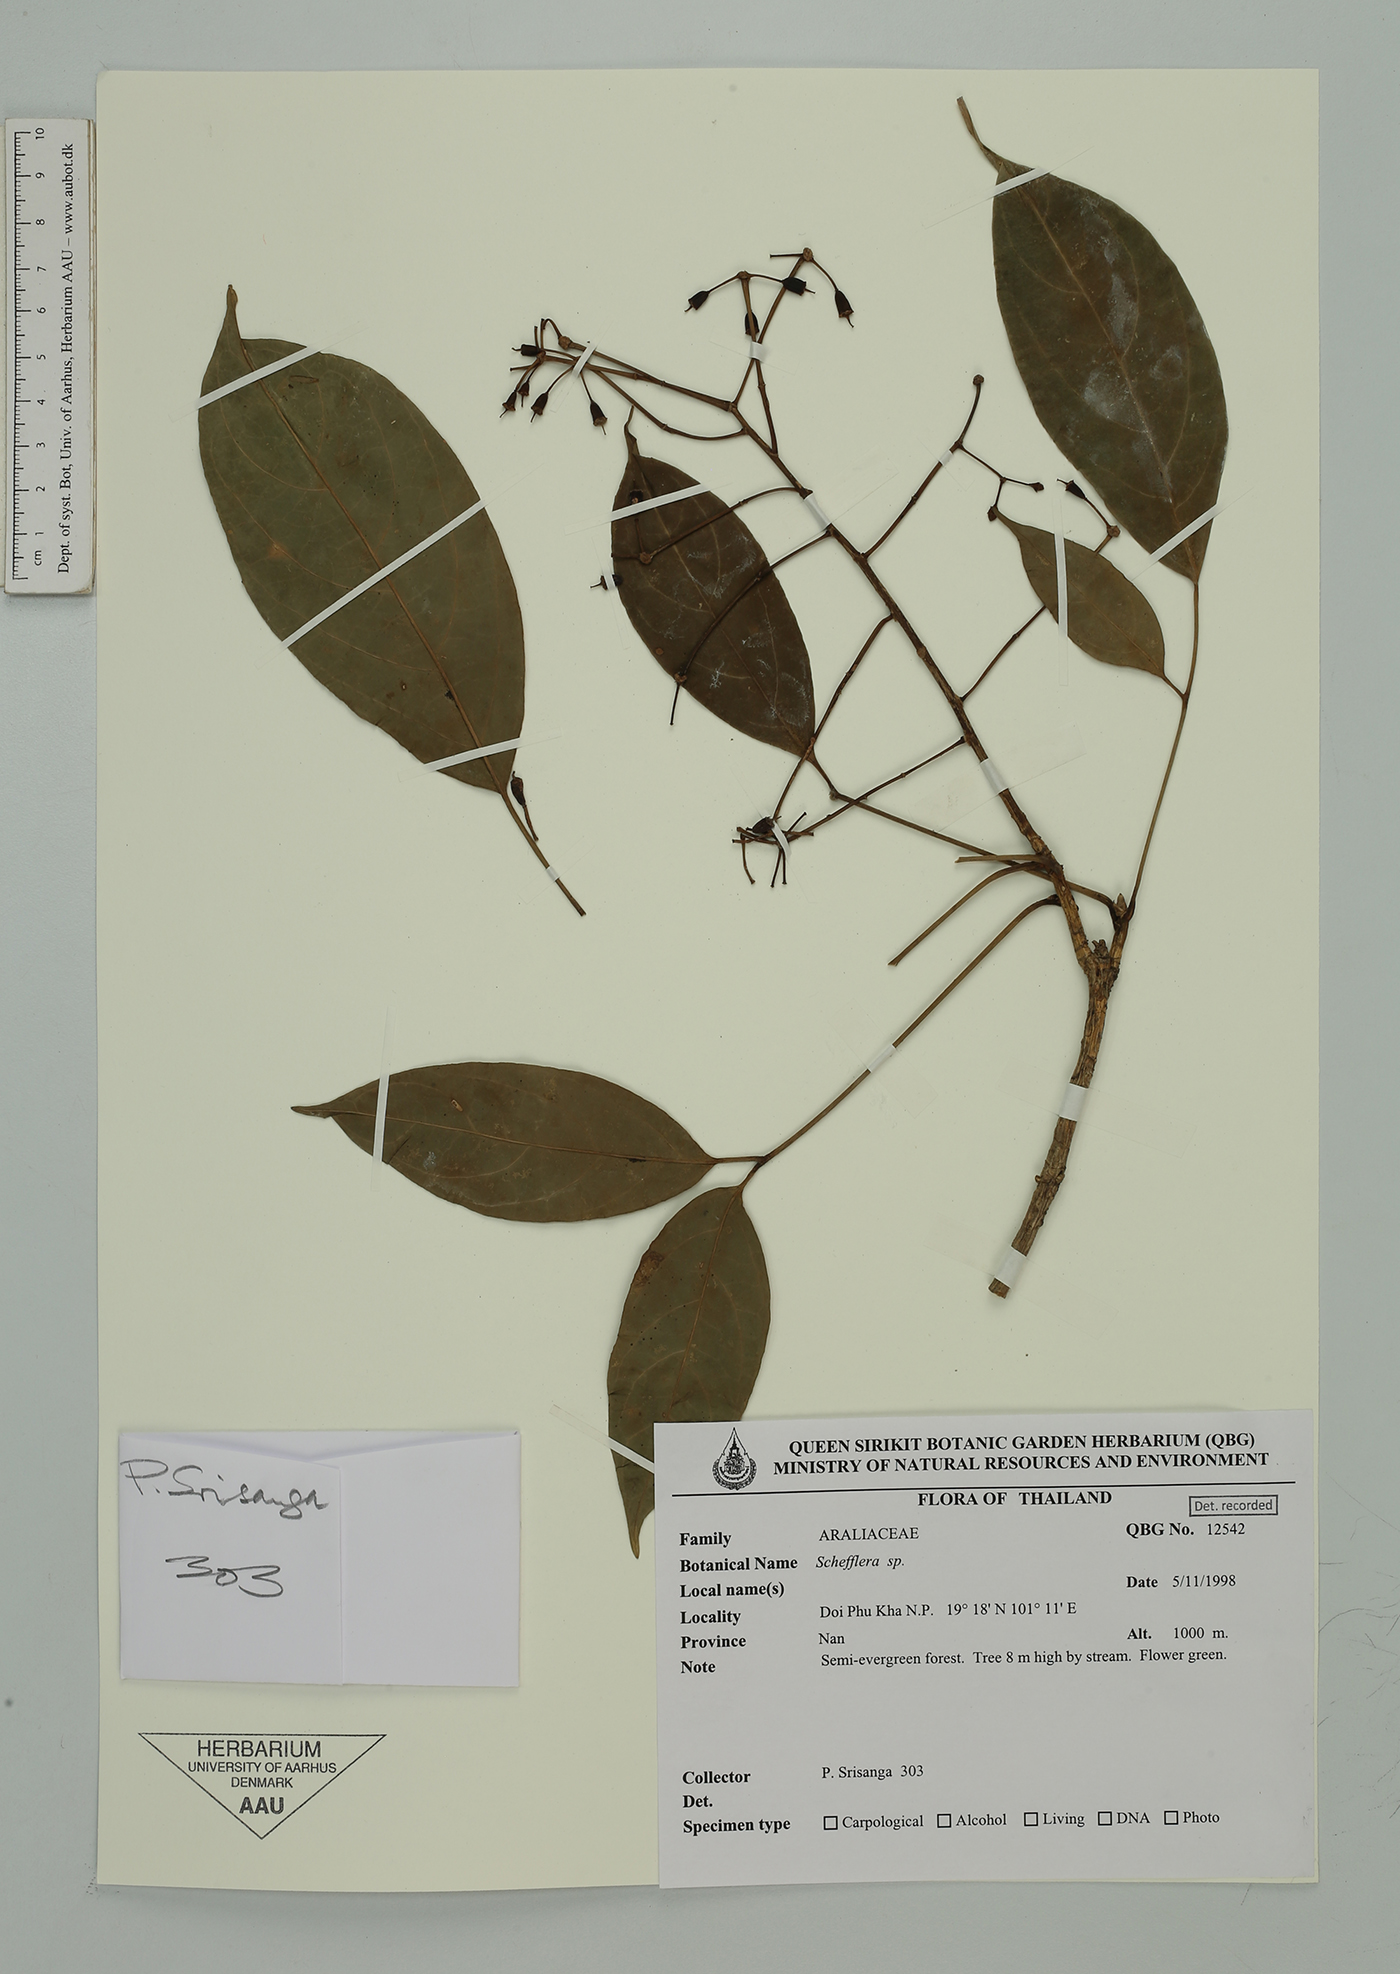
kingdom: Plantae
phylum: Tracheophyta
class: Magnoliopsida
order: Apiales
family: Araliaceae
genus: Schefflera
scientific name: Schefflera
